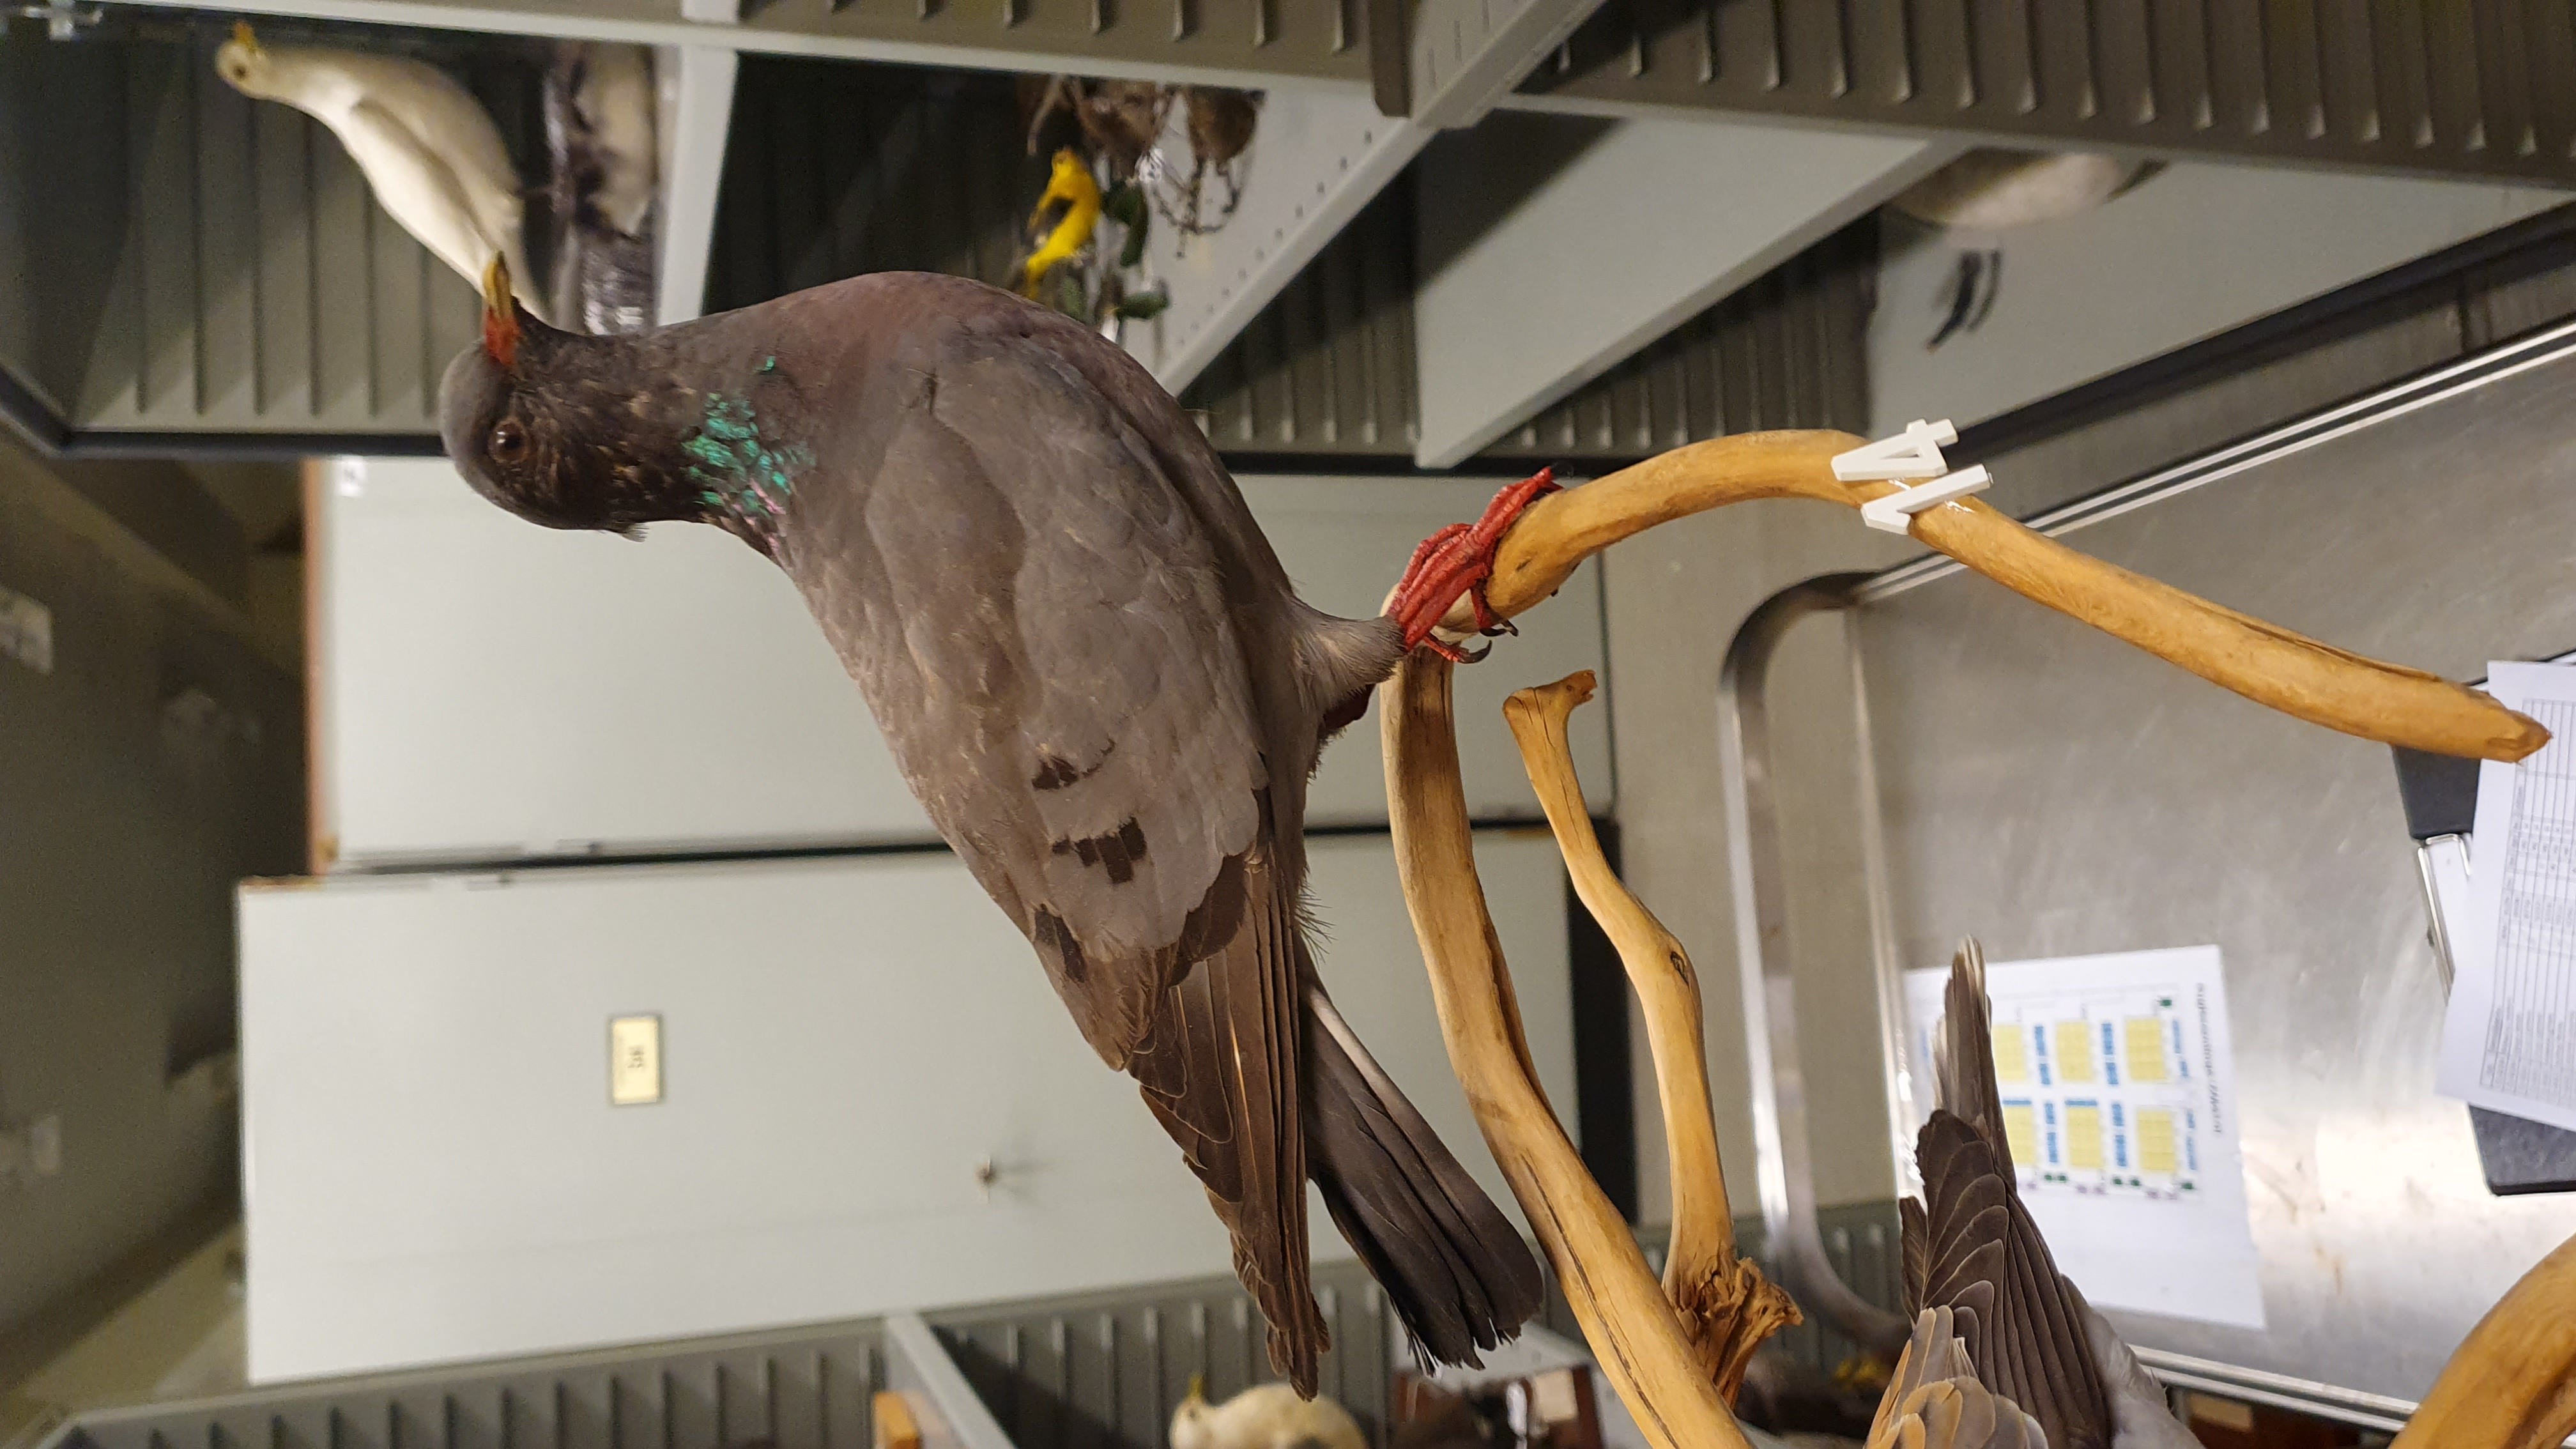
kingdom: Animalia
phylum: Chordata
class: Aves
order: Columbiformes
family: Columbidae
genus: Columba
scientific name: Columba oenas
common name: Stock dove
